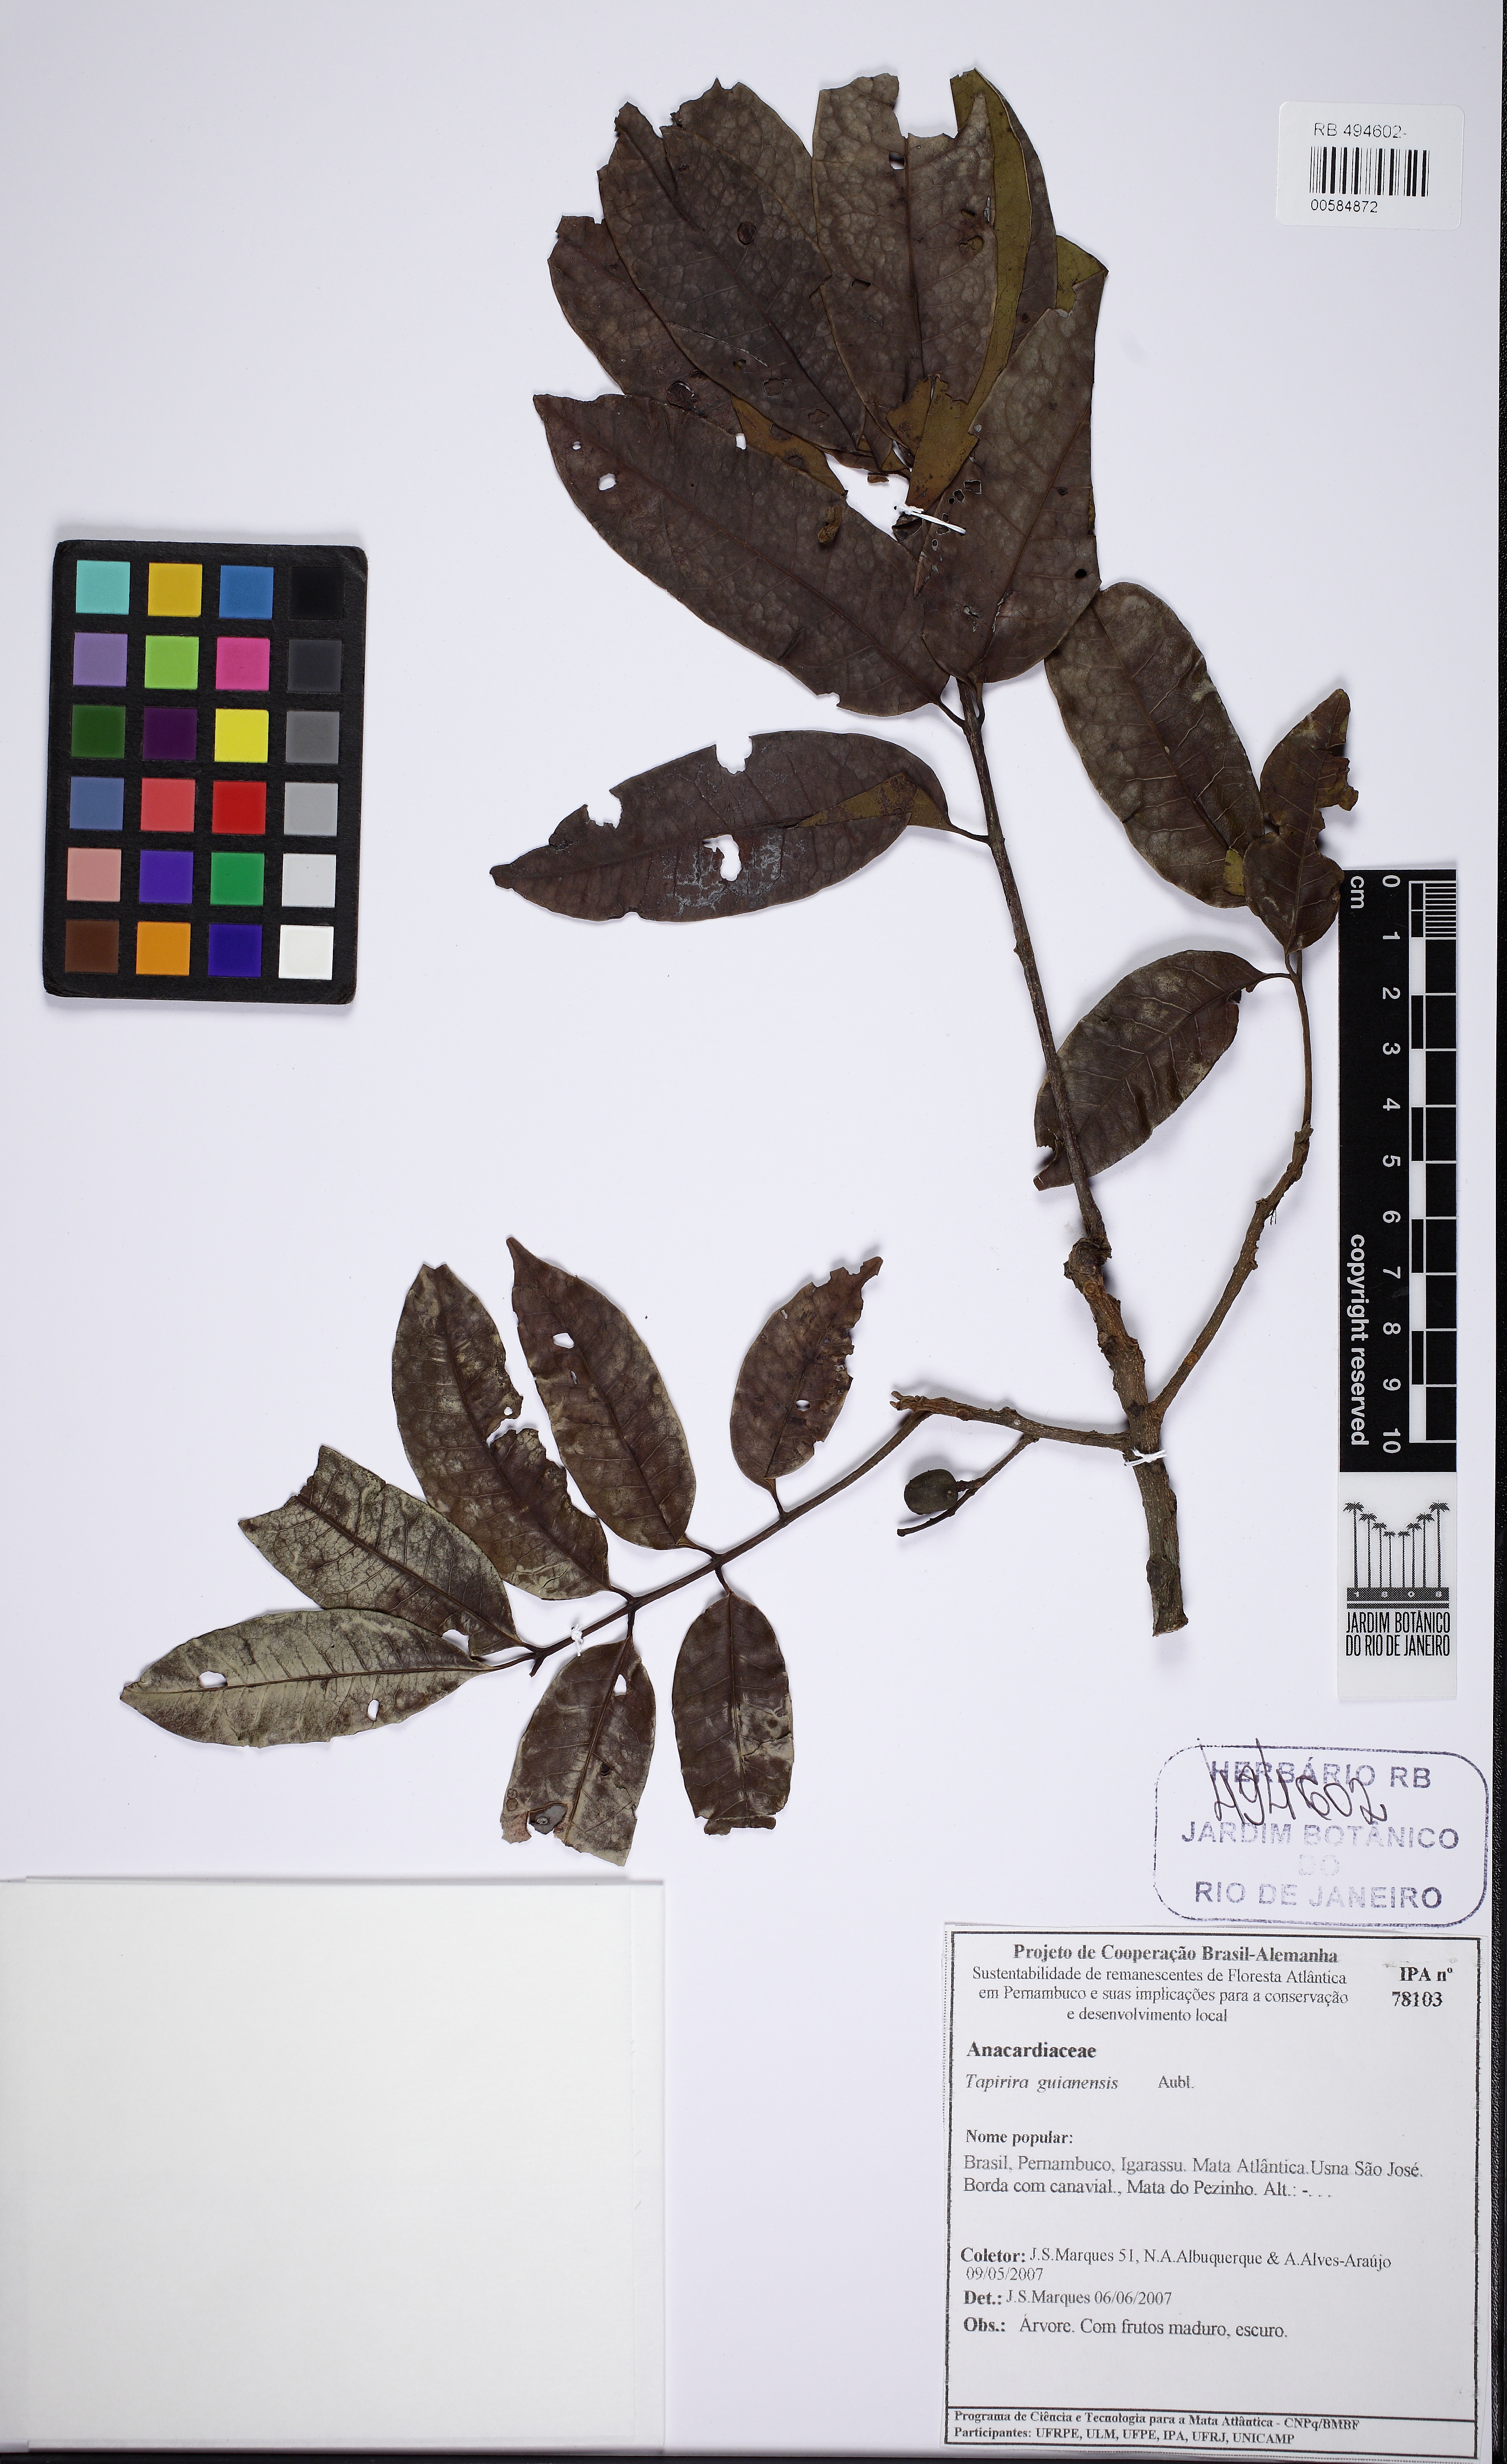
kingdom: Plantae
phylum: Tracheophyta
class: Magnoliopsida
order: Sapindales
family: Anacardiaceae
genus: Tapirira
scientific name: Tapirira guianensis
